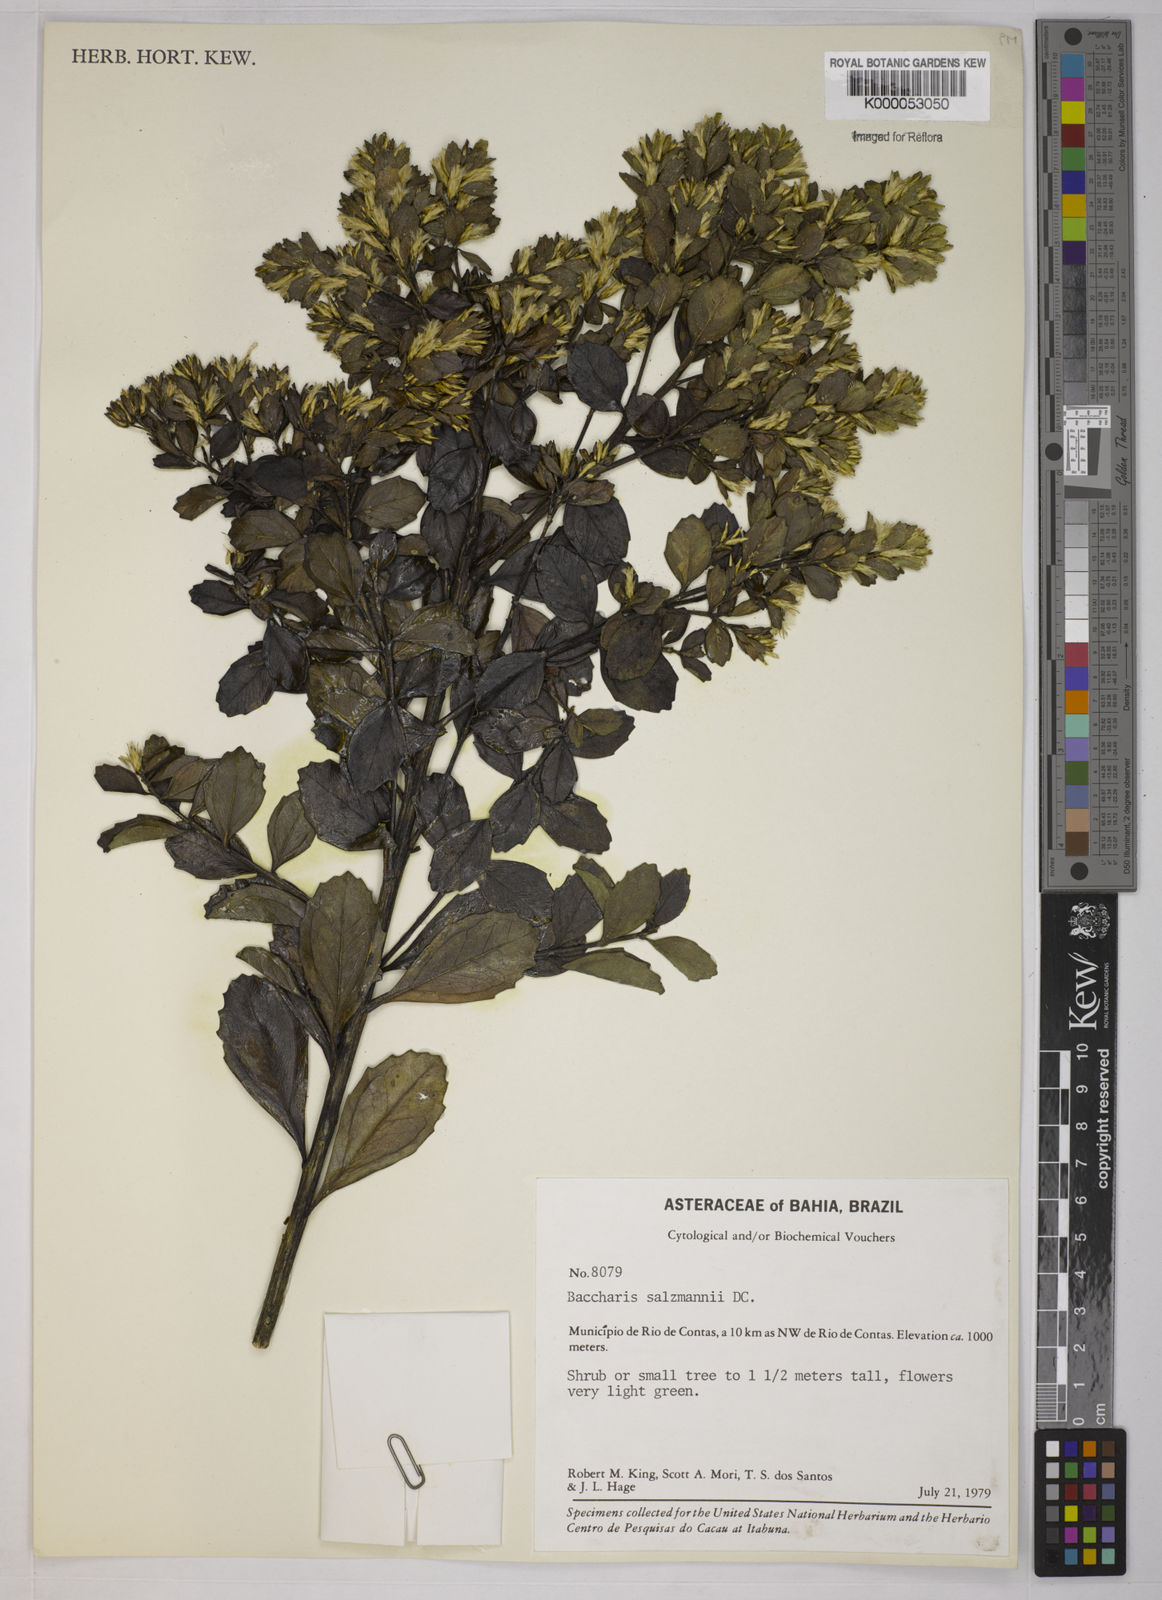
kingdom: Plantae
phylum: Tracheophyta
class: Magnoliopsida
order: Asterales
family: Asteraceae
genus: Baccharis
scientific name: Baccharis retusa
